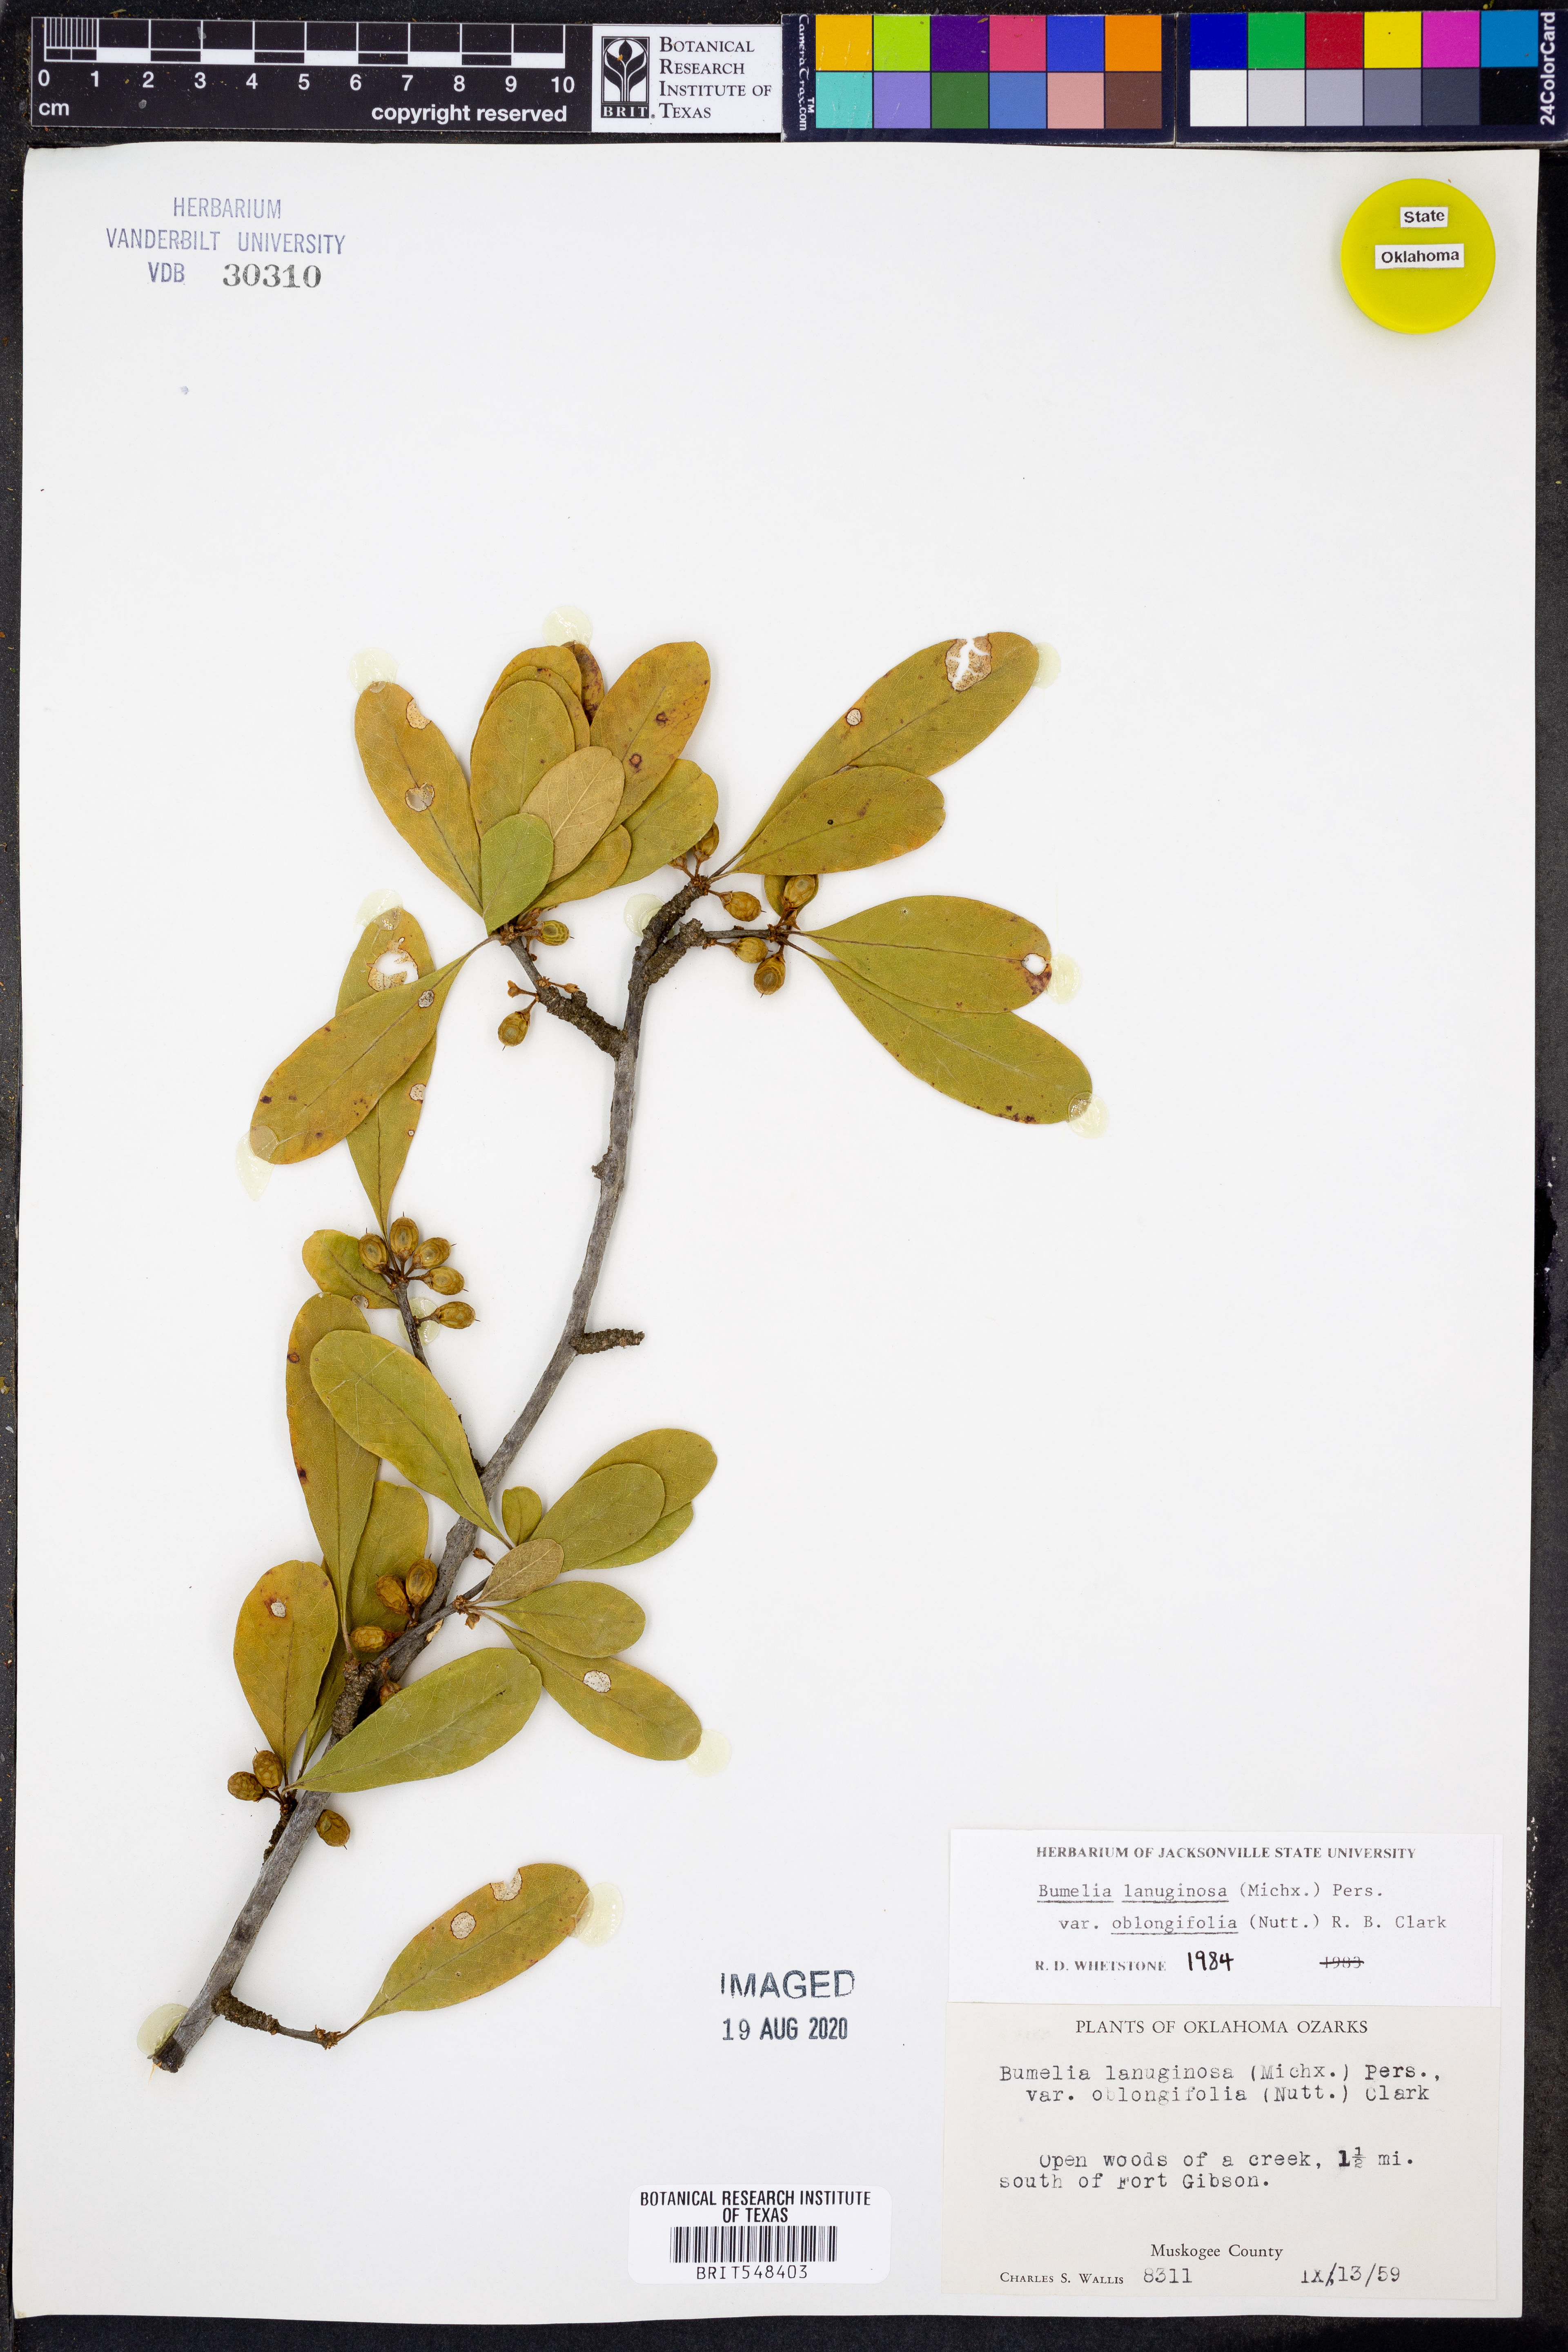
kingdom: Plantae
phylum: Tracheophyta
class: Magnoliopsida
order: Ericales
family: Sapotaceae
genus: Sideroxylon
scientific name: Sideroxylon lanuginosum
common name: Chittamwood
